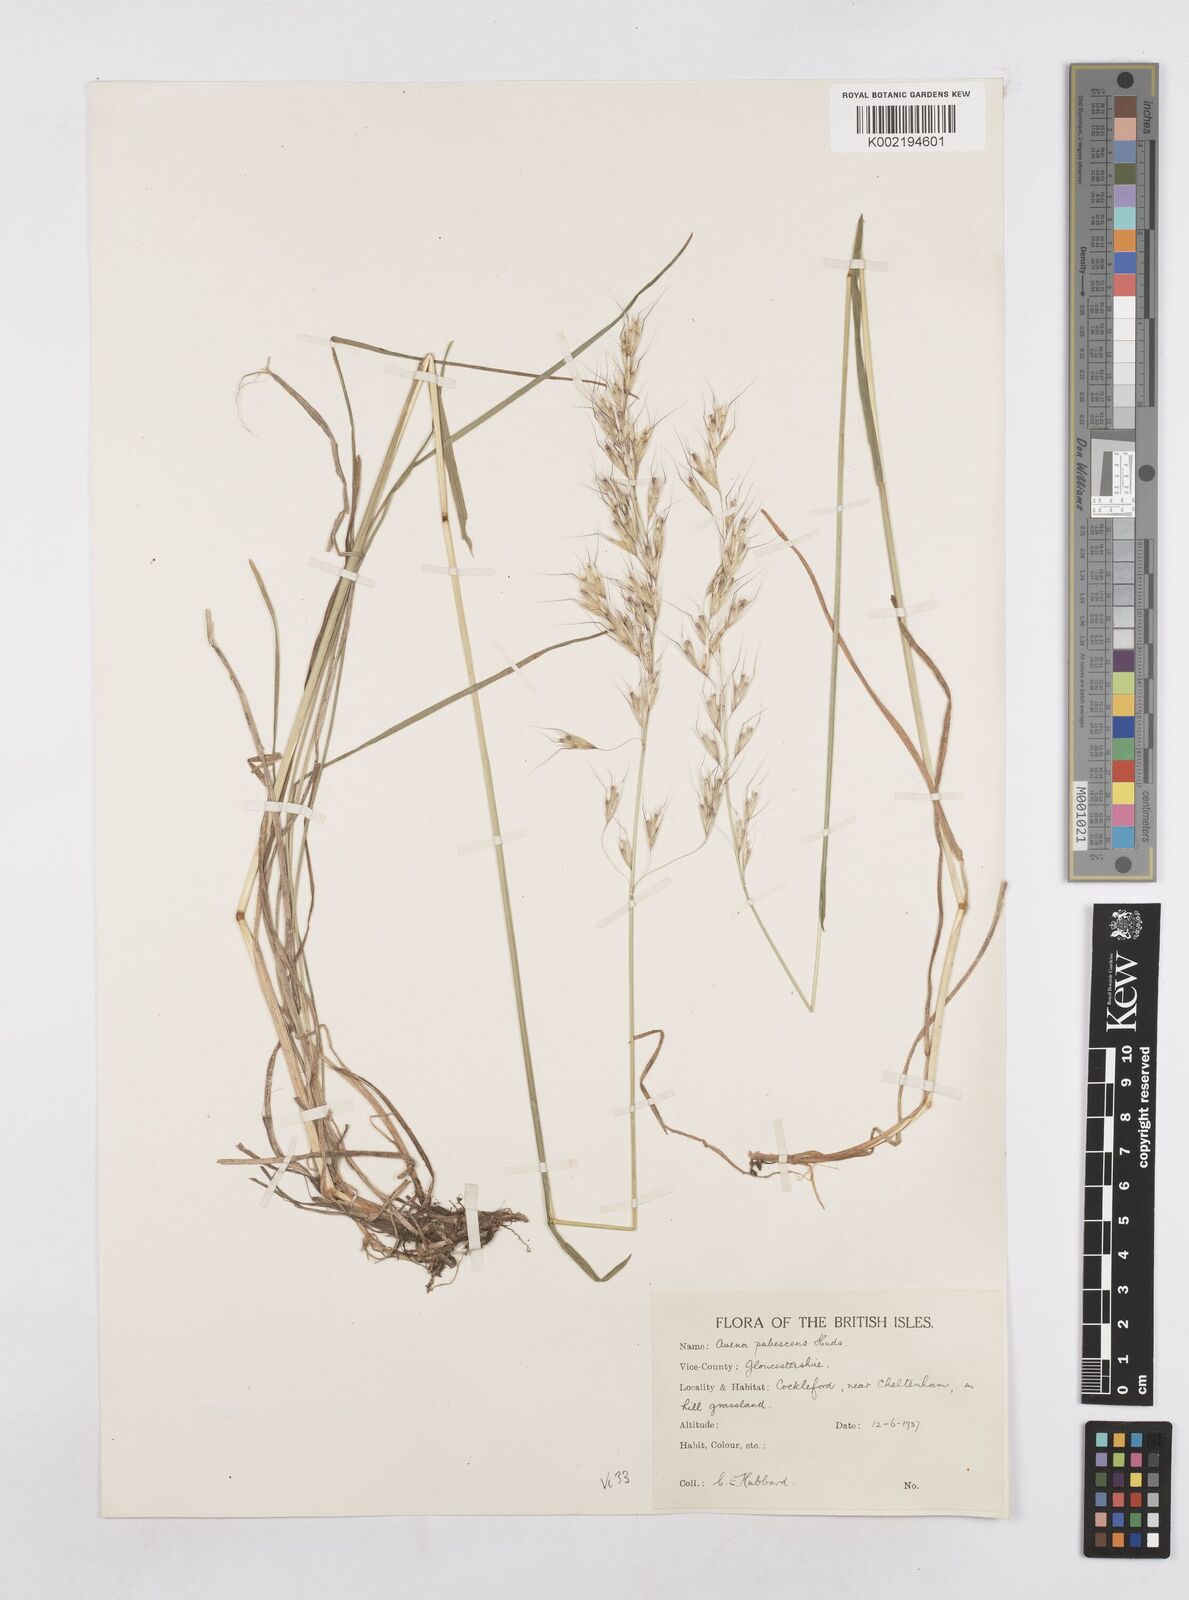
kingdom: Plantae
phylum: Tracheophyta
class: Liliopsida
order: Poales
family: Poaceae
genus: Avenula
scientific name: Avenula pubescens
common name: Downy alpine oatgrass
